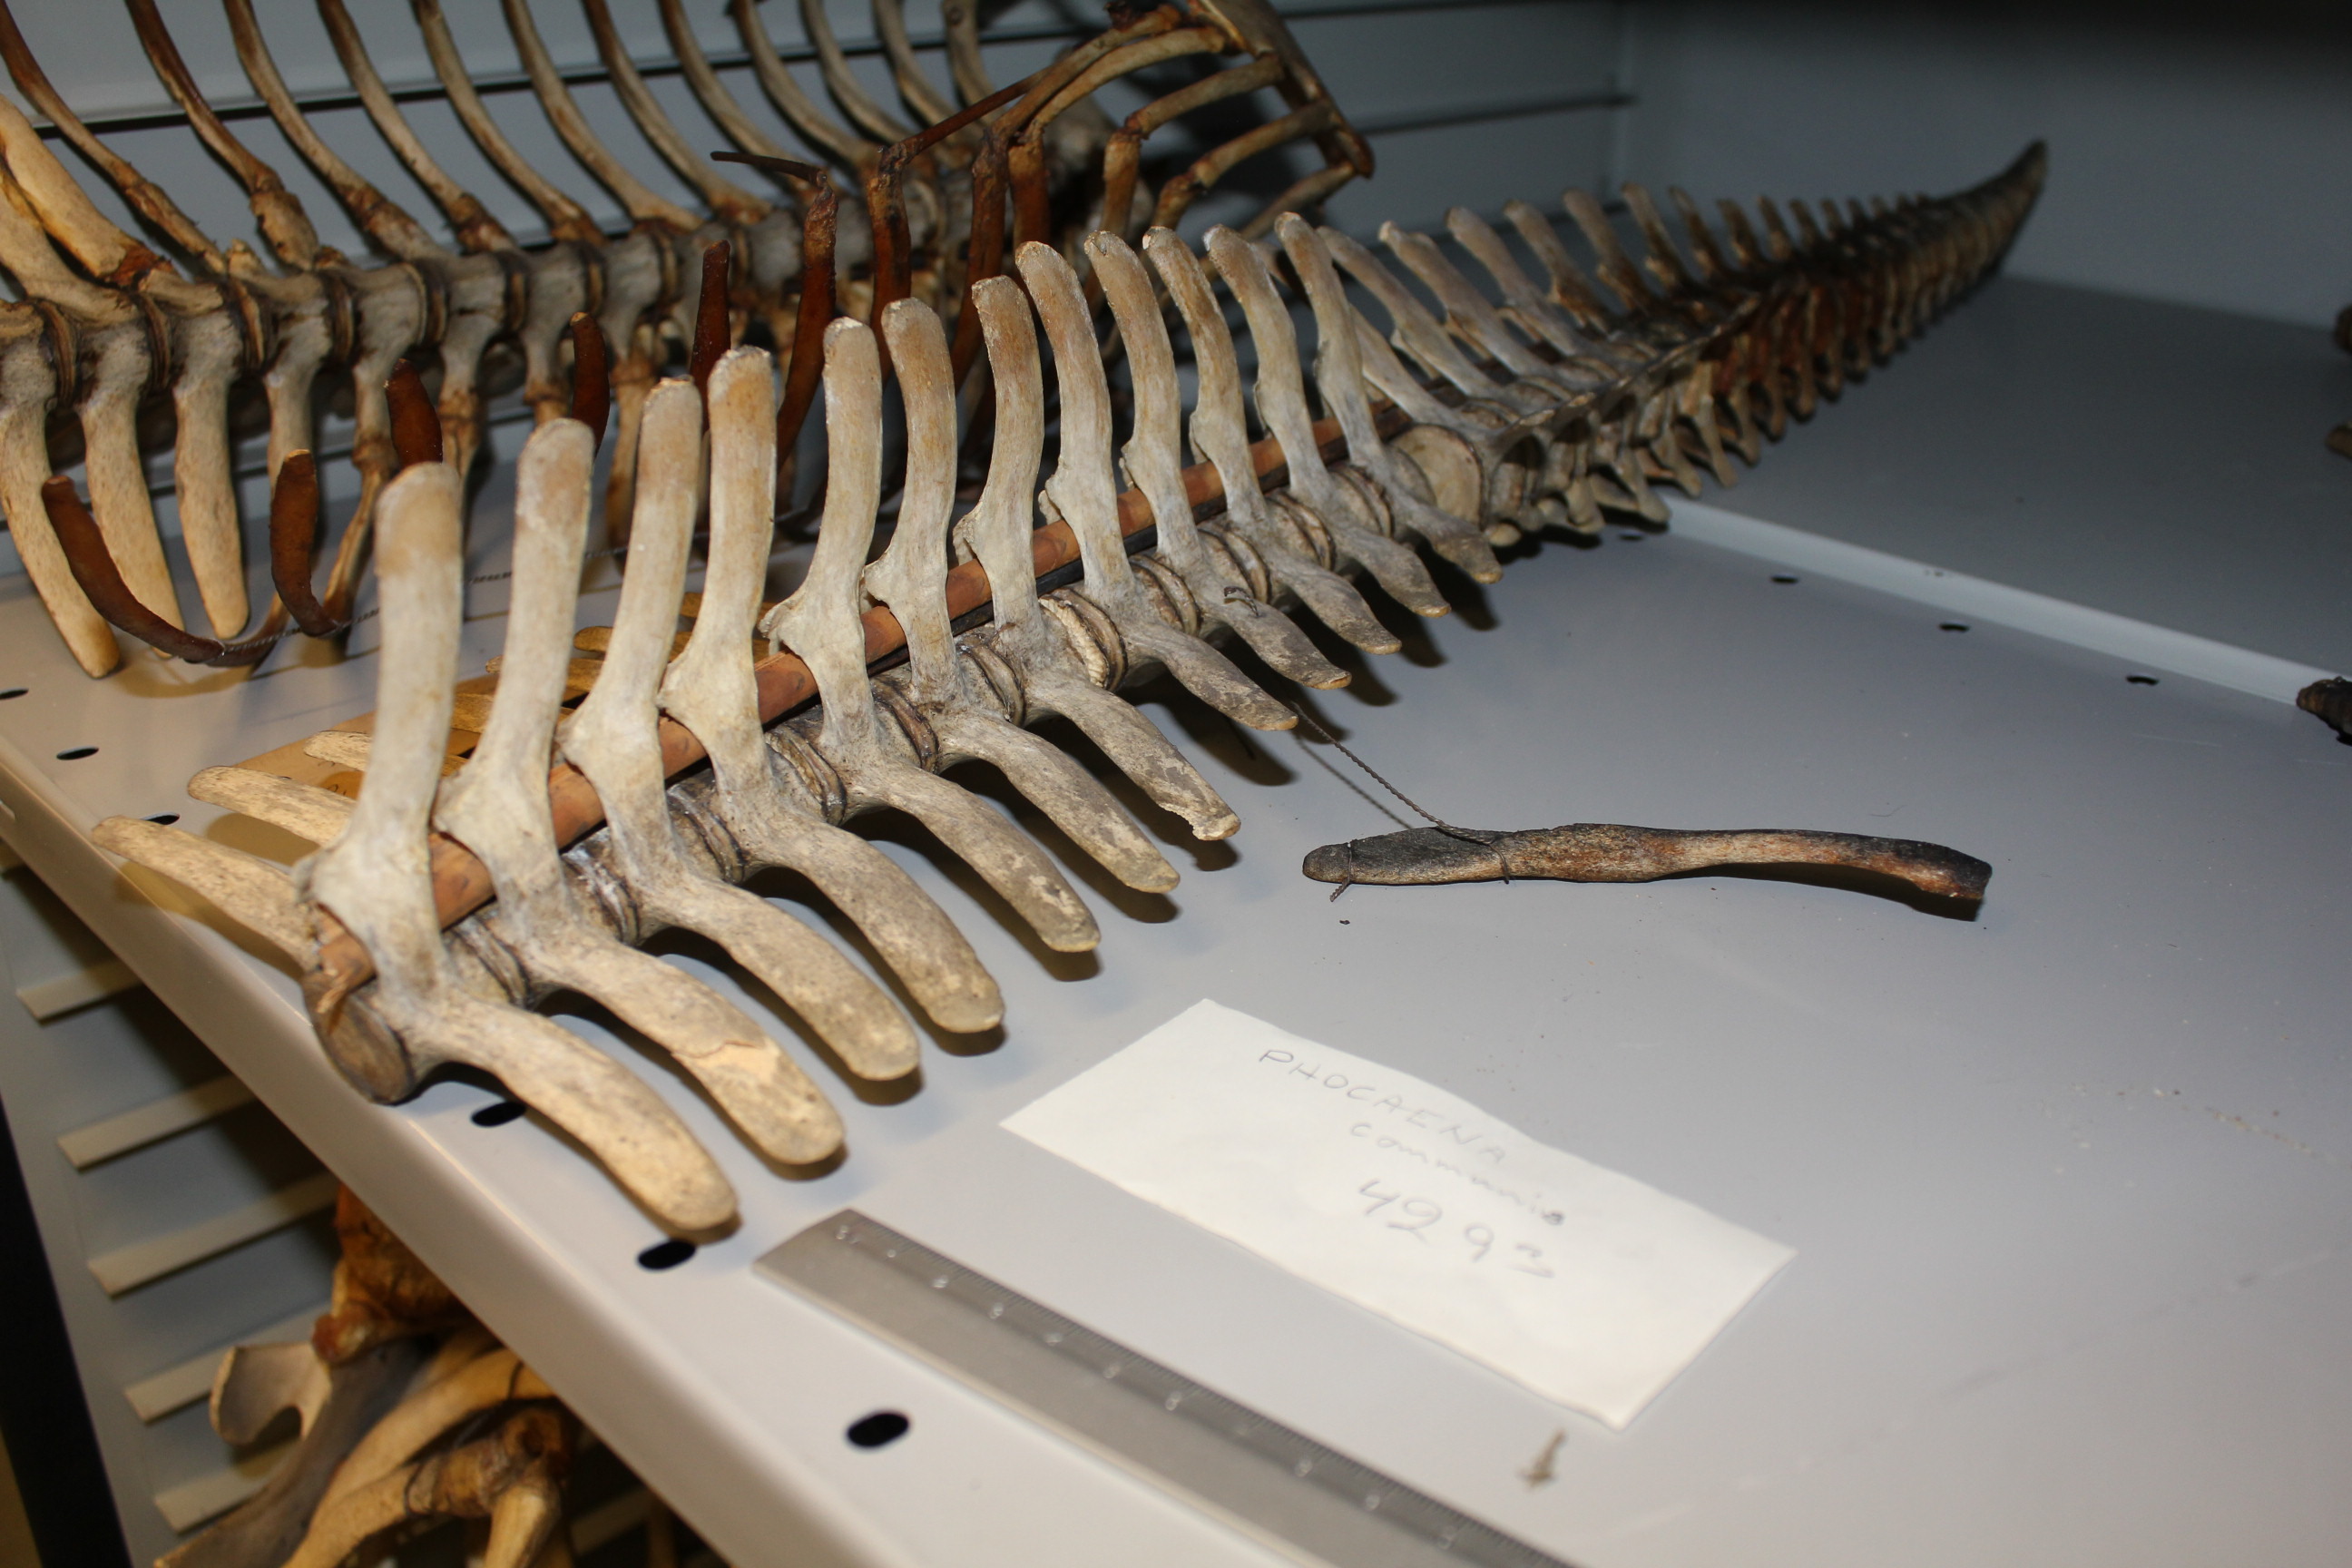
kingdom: Animalia
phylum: Chordata
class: Mammalia
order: Cetacea
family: Phocoenidae
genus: Phocoena
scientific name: Phocoena phocoena
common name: Harbor porpoise
